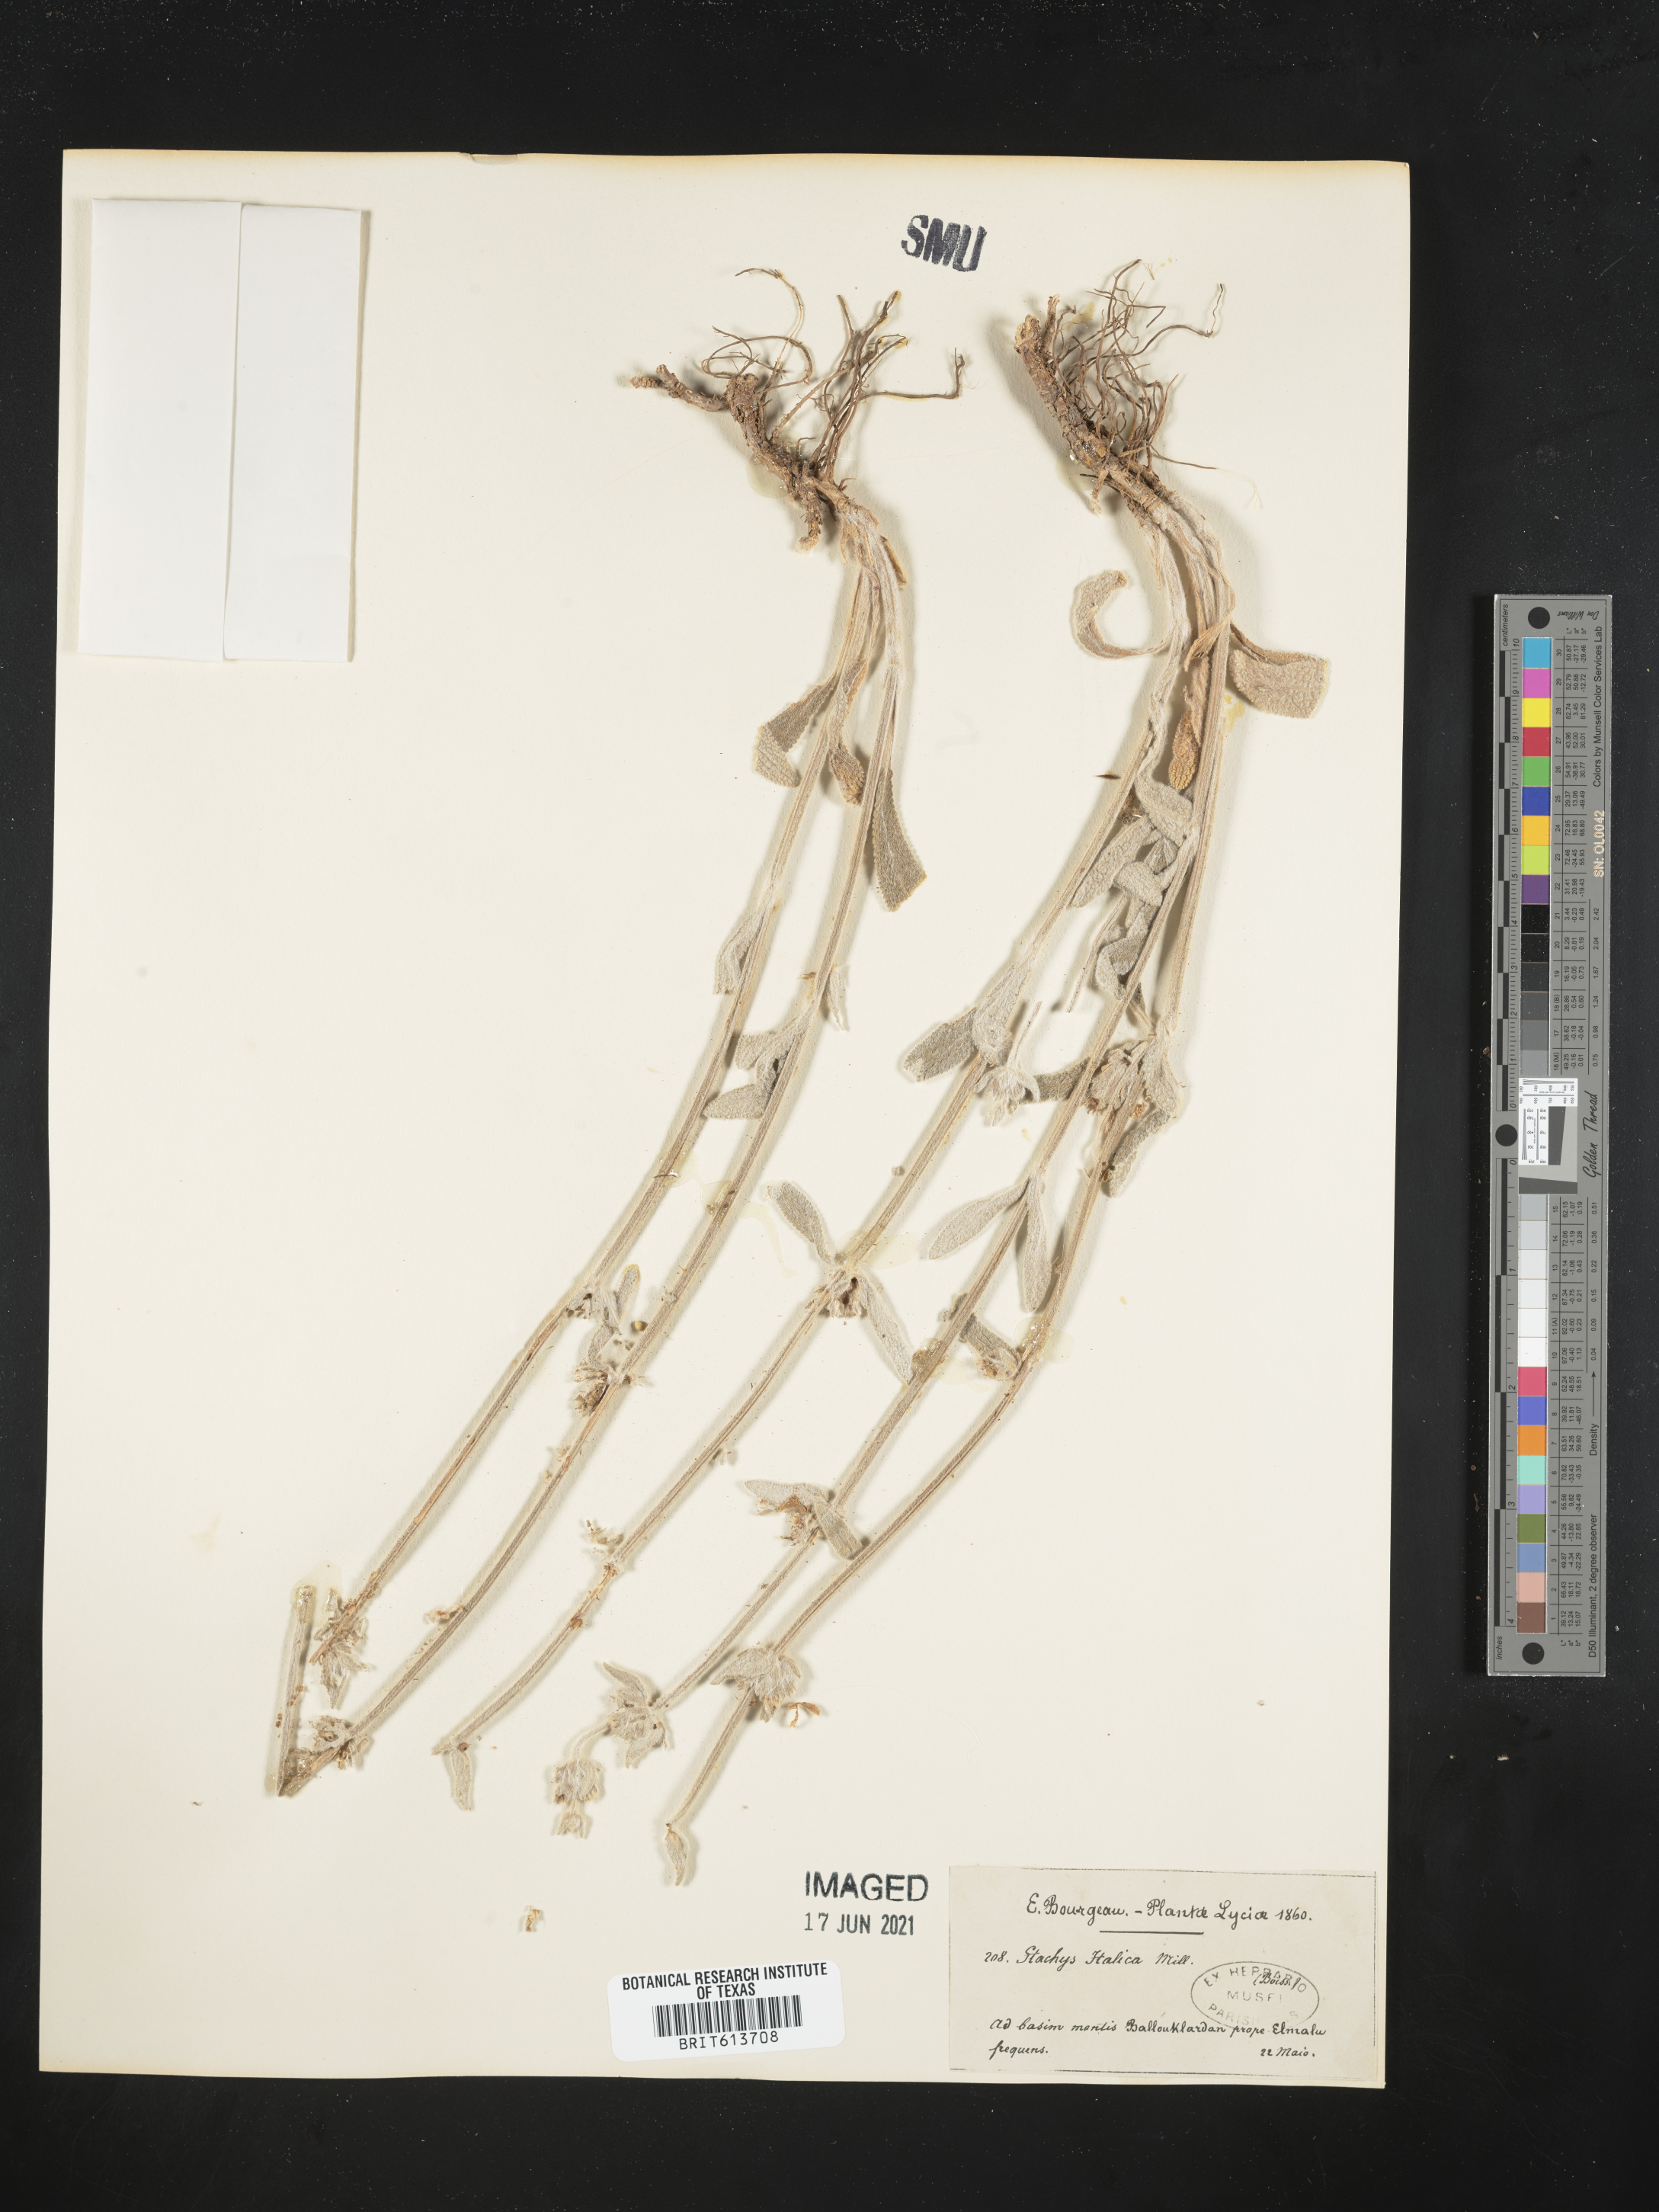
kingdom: Plantae
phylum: Tracheophyta
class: Magnoliopsida
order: Lamiales
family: Lamiaceae
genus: Sideritis
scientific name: Sideritis italica
